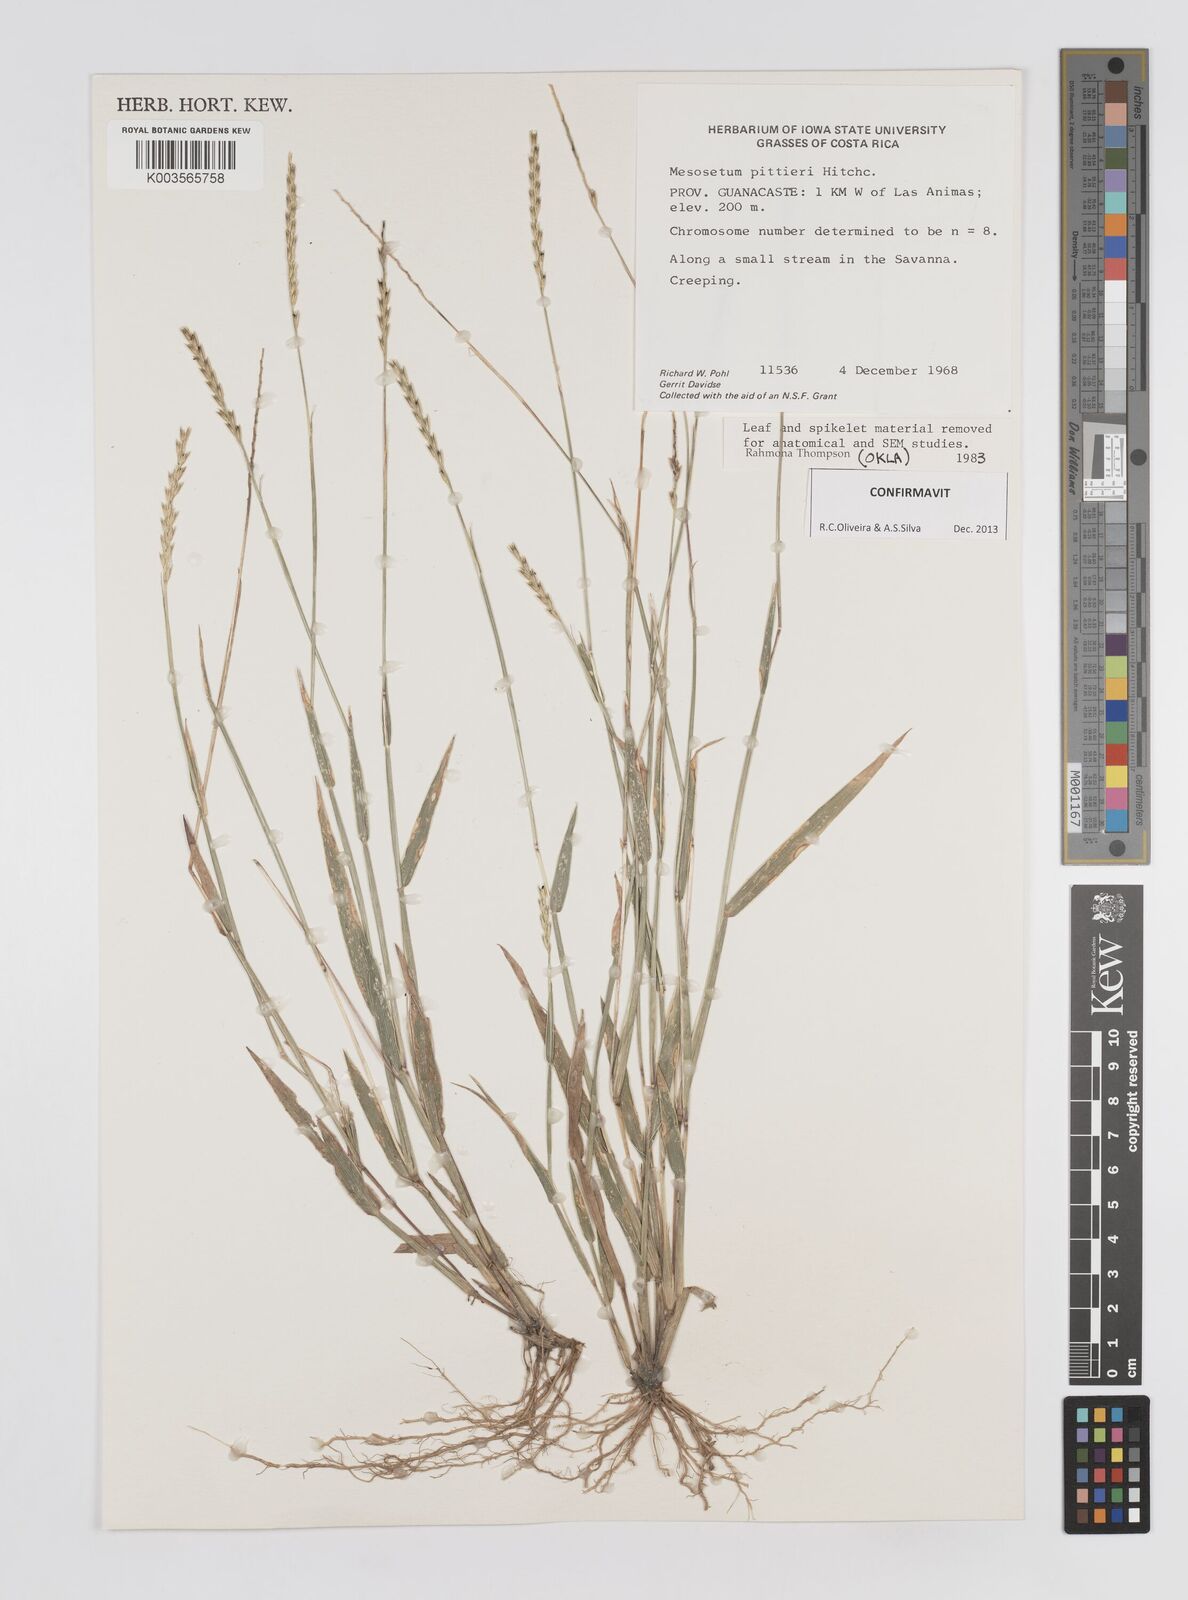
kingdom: Plantae
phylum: Tracheophyta
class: Liliopsida
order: Poales
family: Poaceae
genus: Mesosetum
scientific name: Mesosetum pittieri
